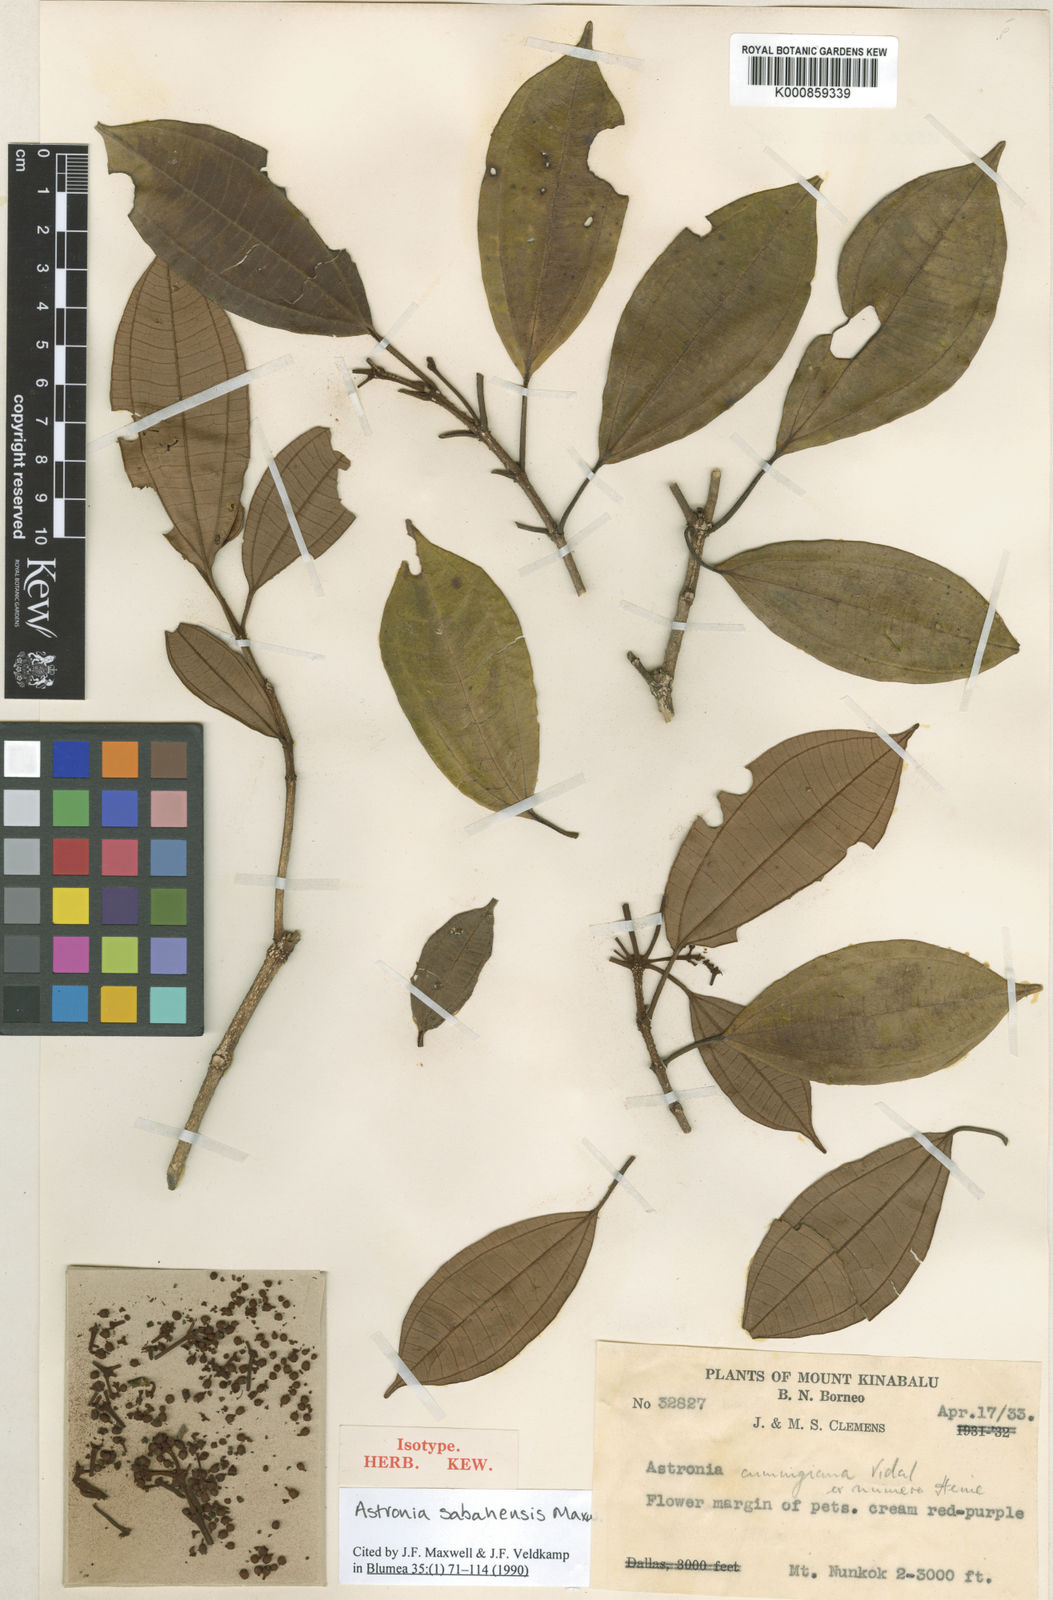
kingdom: Plantae
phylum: Tracheophyta
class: Magnoliopsida
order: Myrtales
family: Melastomataceae
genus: Astronia
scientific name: Astronia sabahensis
